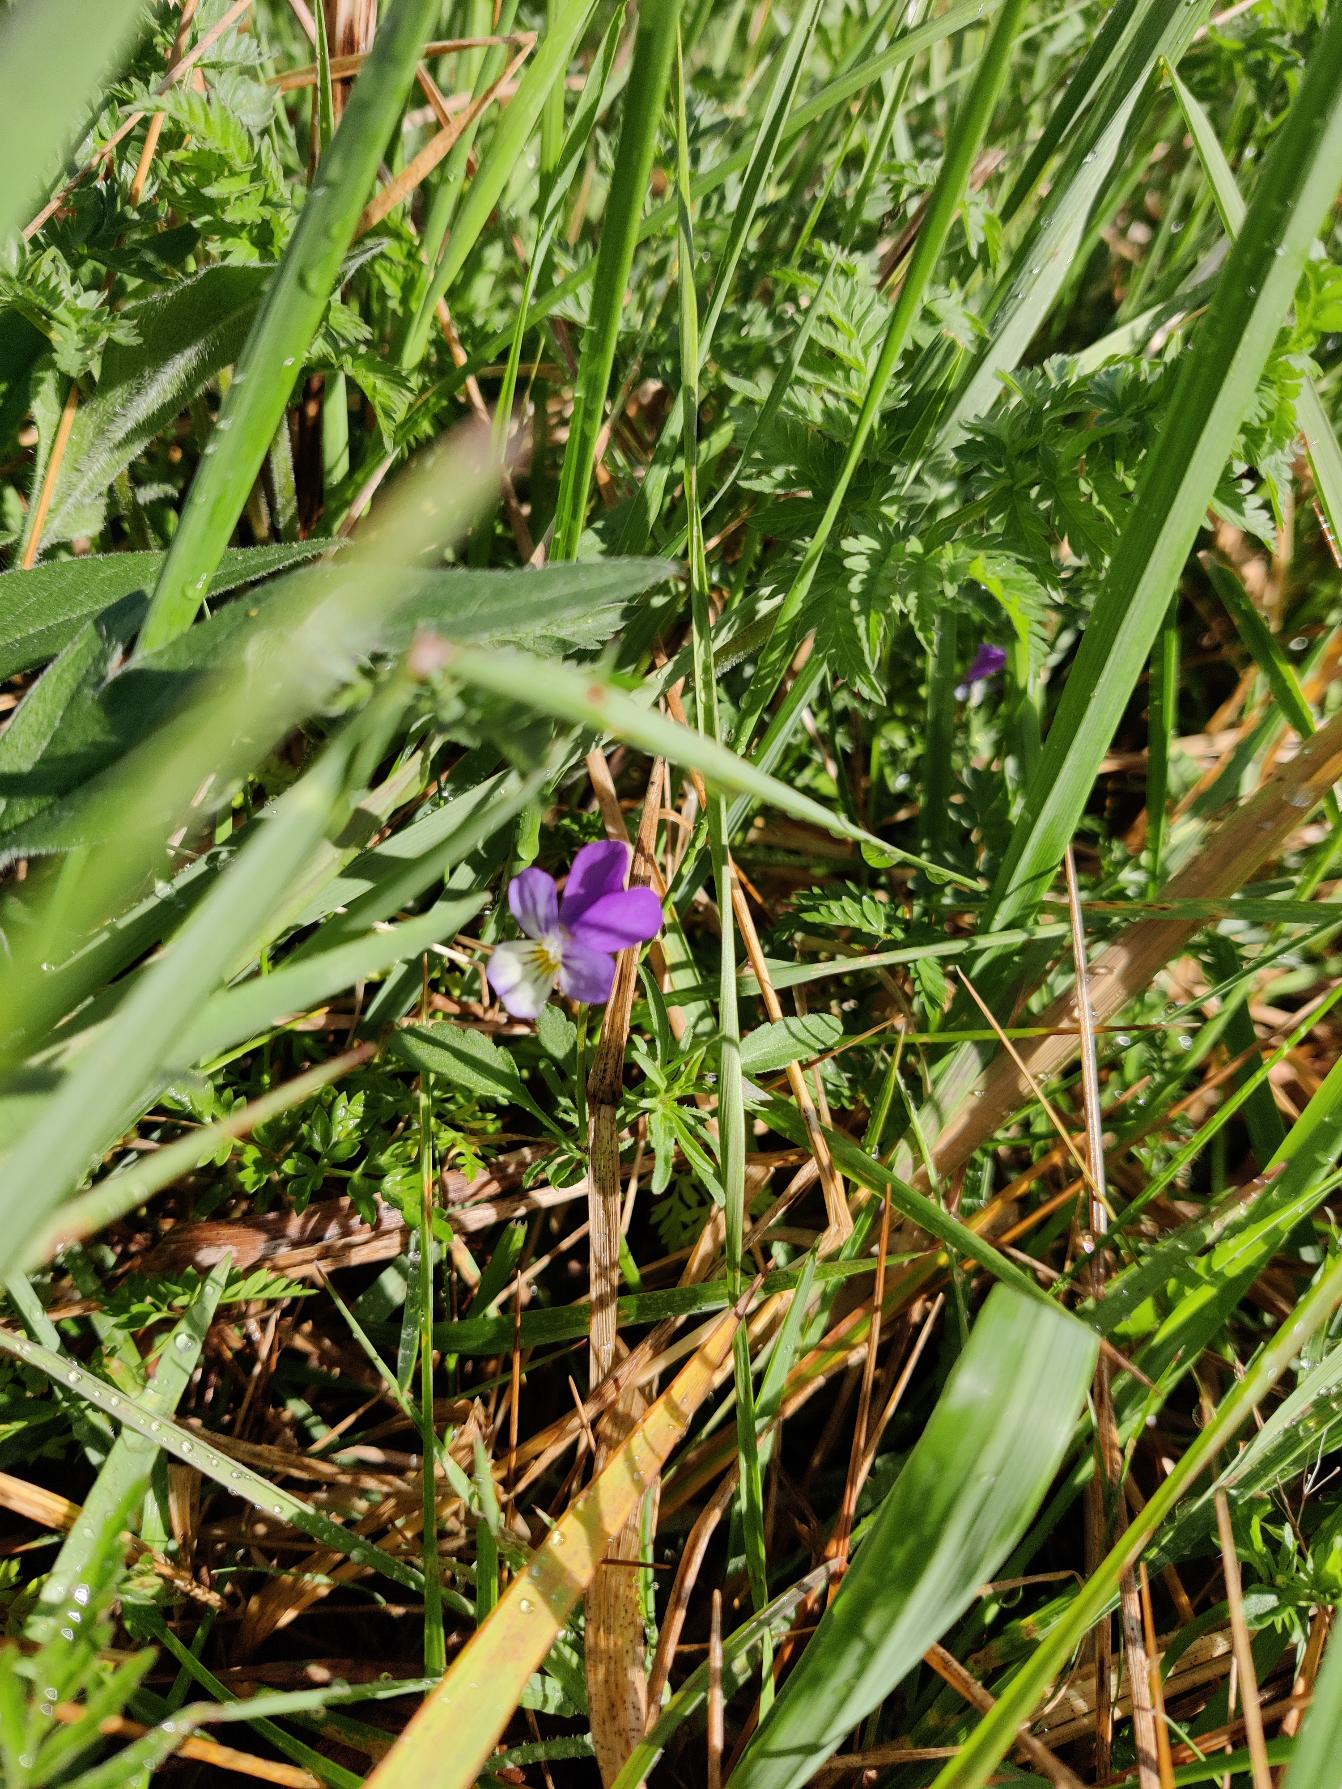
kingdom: Plantae
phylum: Tracheophyta
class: Magnoliopsida
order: Malpighiales
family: Violaceae
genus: Viola
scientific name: Viola tricolor
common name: Stedmoderblomst
